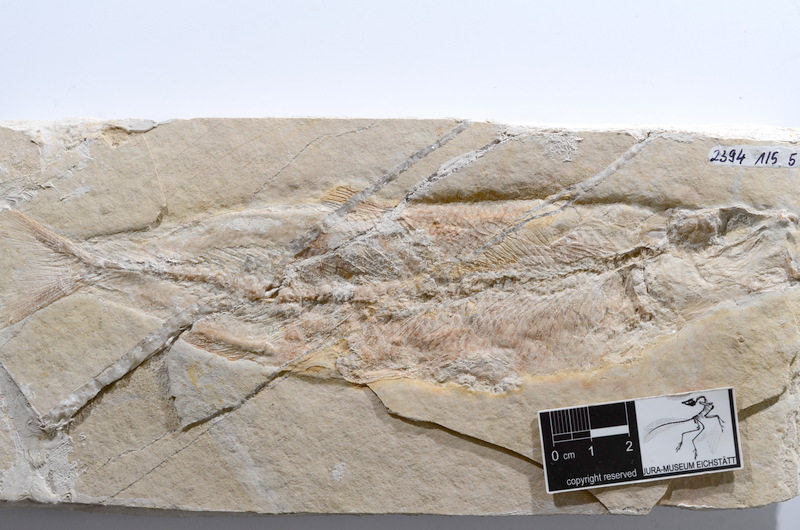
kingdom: Animalia
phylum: Chordata
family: Ascalaboidae
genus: Tharsis
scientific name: Tharsis dubius
